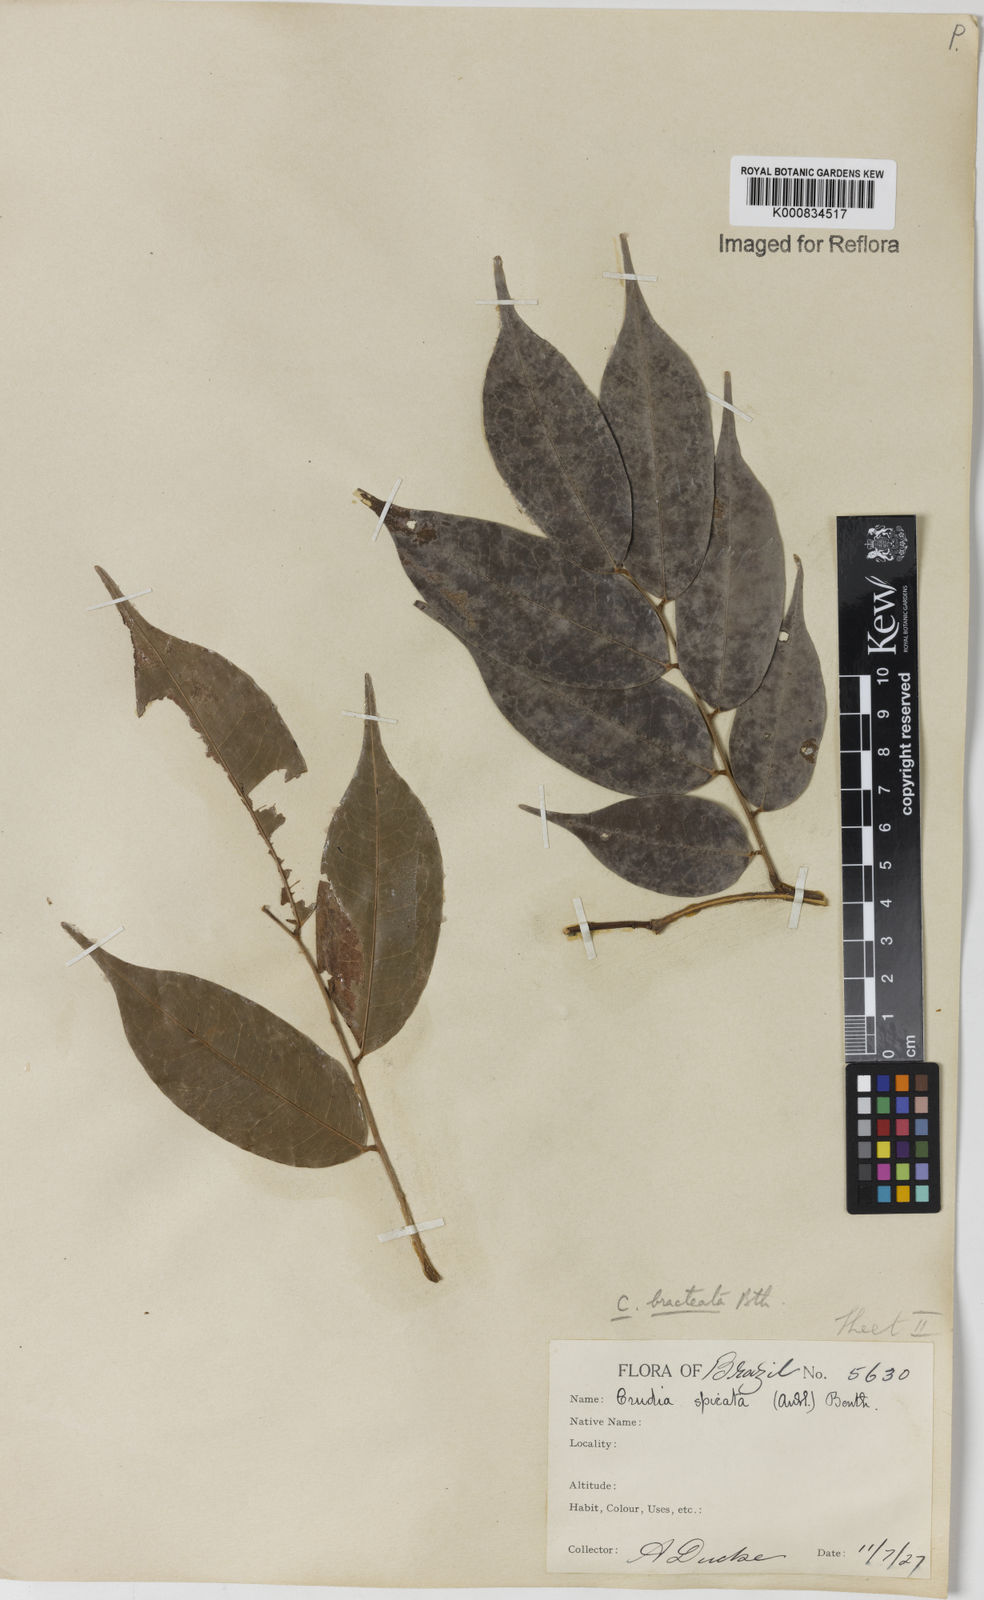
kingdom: Plantae
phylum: Tracheophyta
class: Magnoliopsida
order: Fabales
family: Fabaceae
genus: Crudia
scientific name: Crudia bracteata
